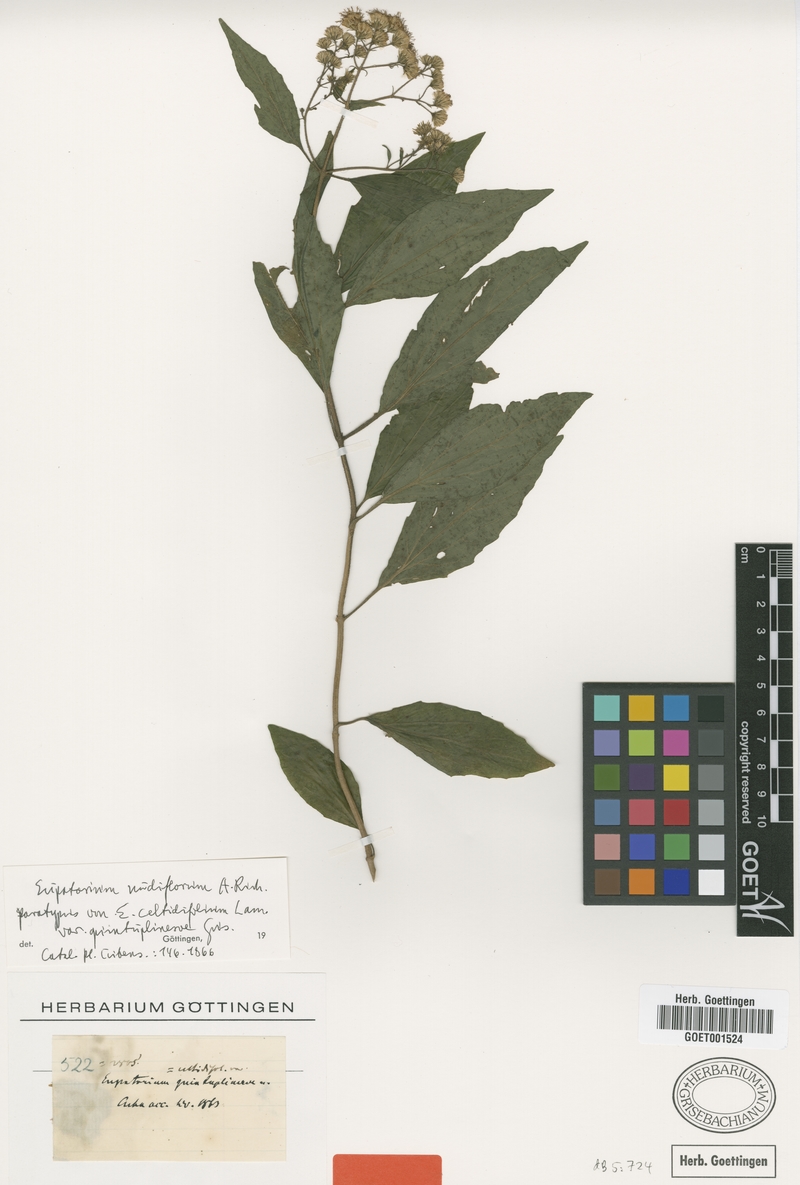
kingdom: Plantae
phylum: Tracheophyta
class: Magnoliopsida
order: Asterales
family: Asteraceae
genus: Koanophyllon
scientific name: Koanophyllon nudiflorum
